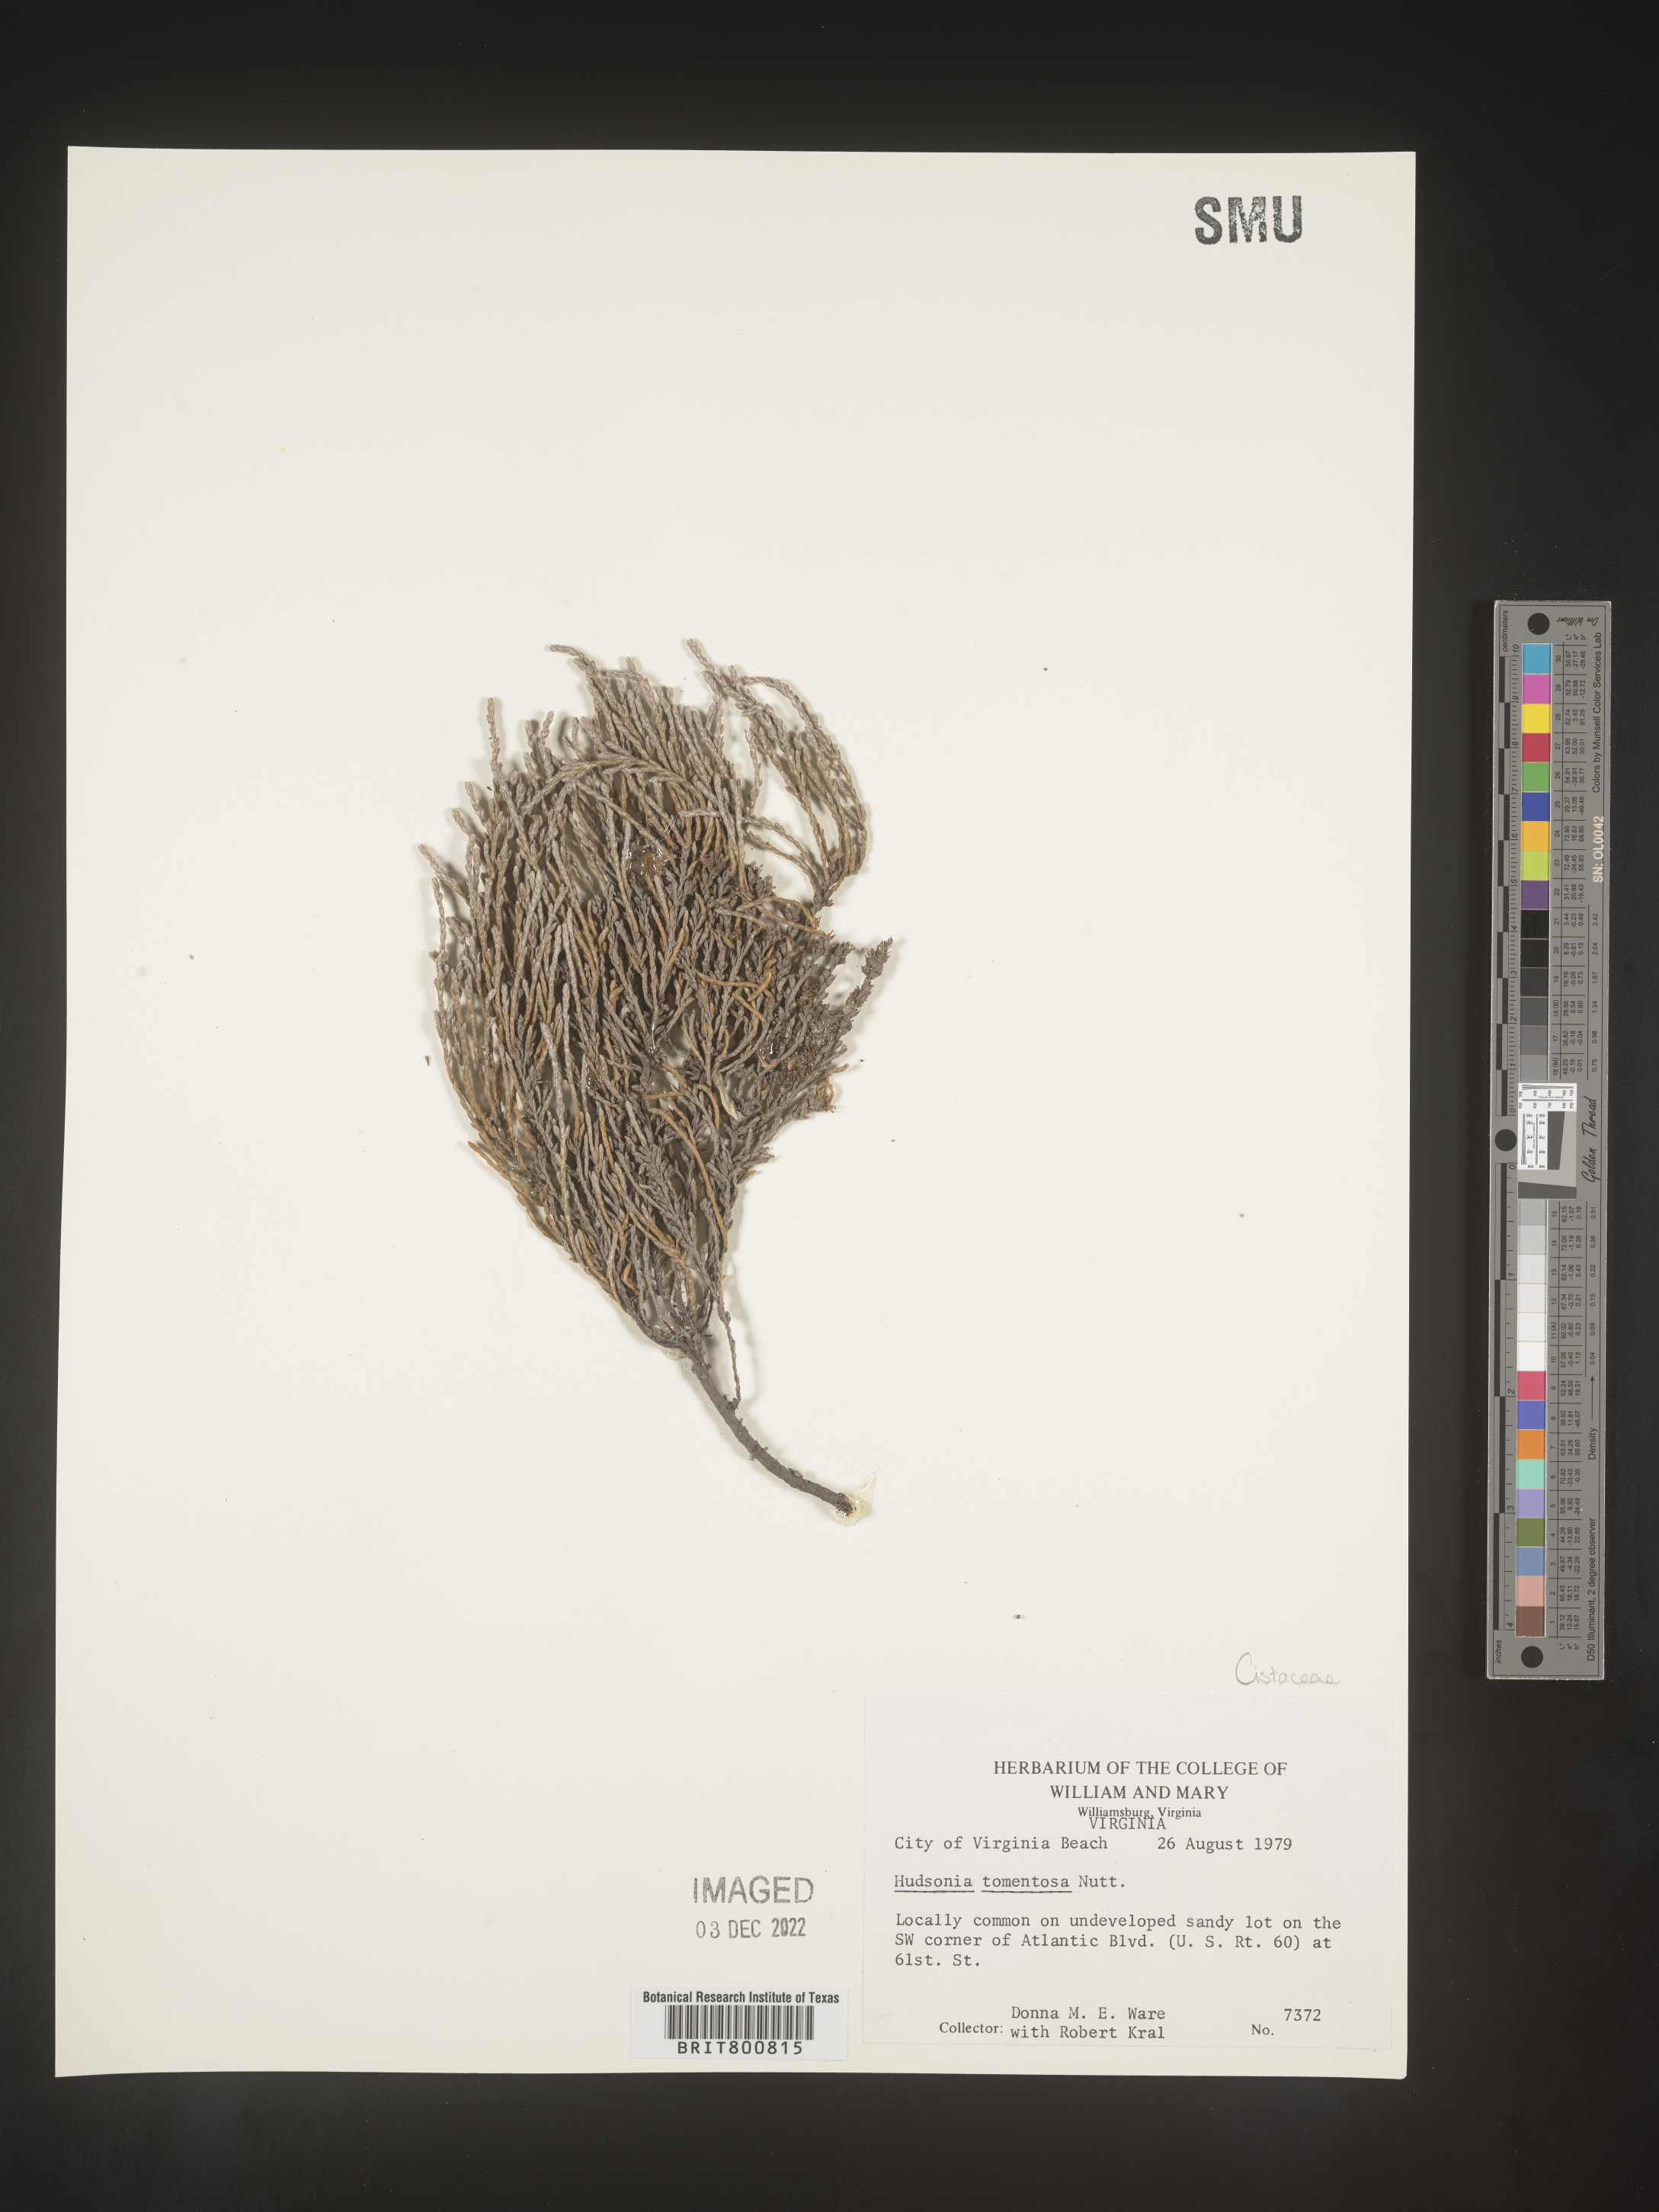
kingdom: Plantae
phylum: Tracheophyta
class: Magnoliopsida
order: Malvales
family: Cistaceae
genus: Hudsonia
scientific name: Hudsonia tomentosa
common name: Beach-heath
